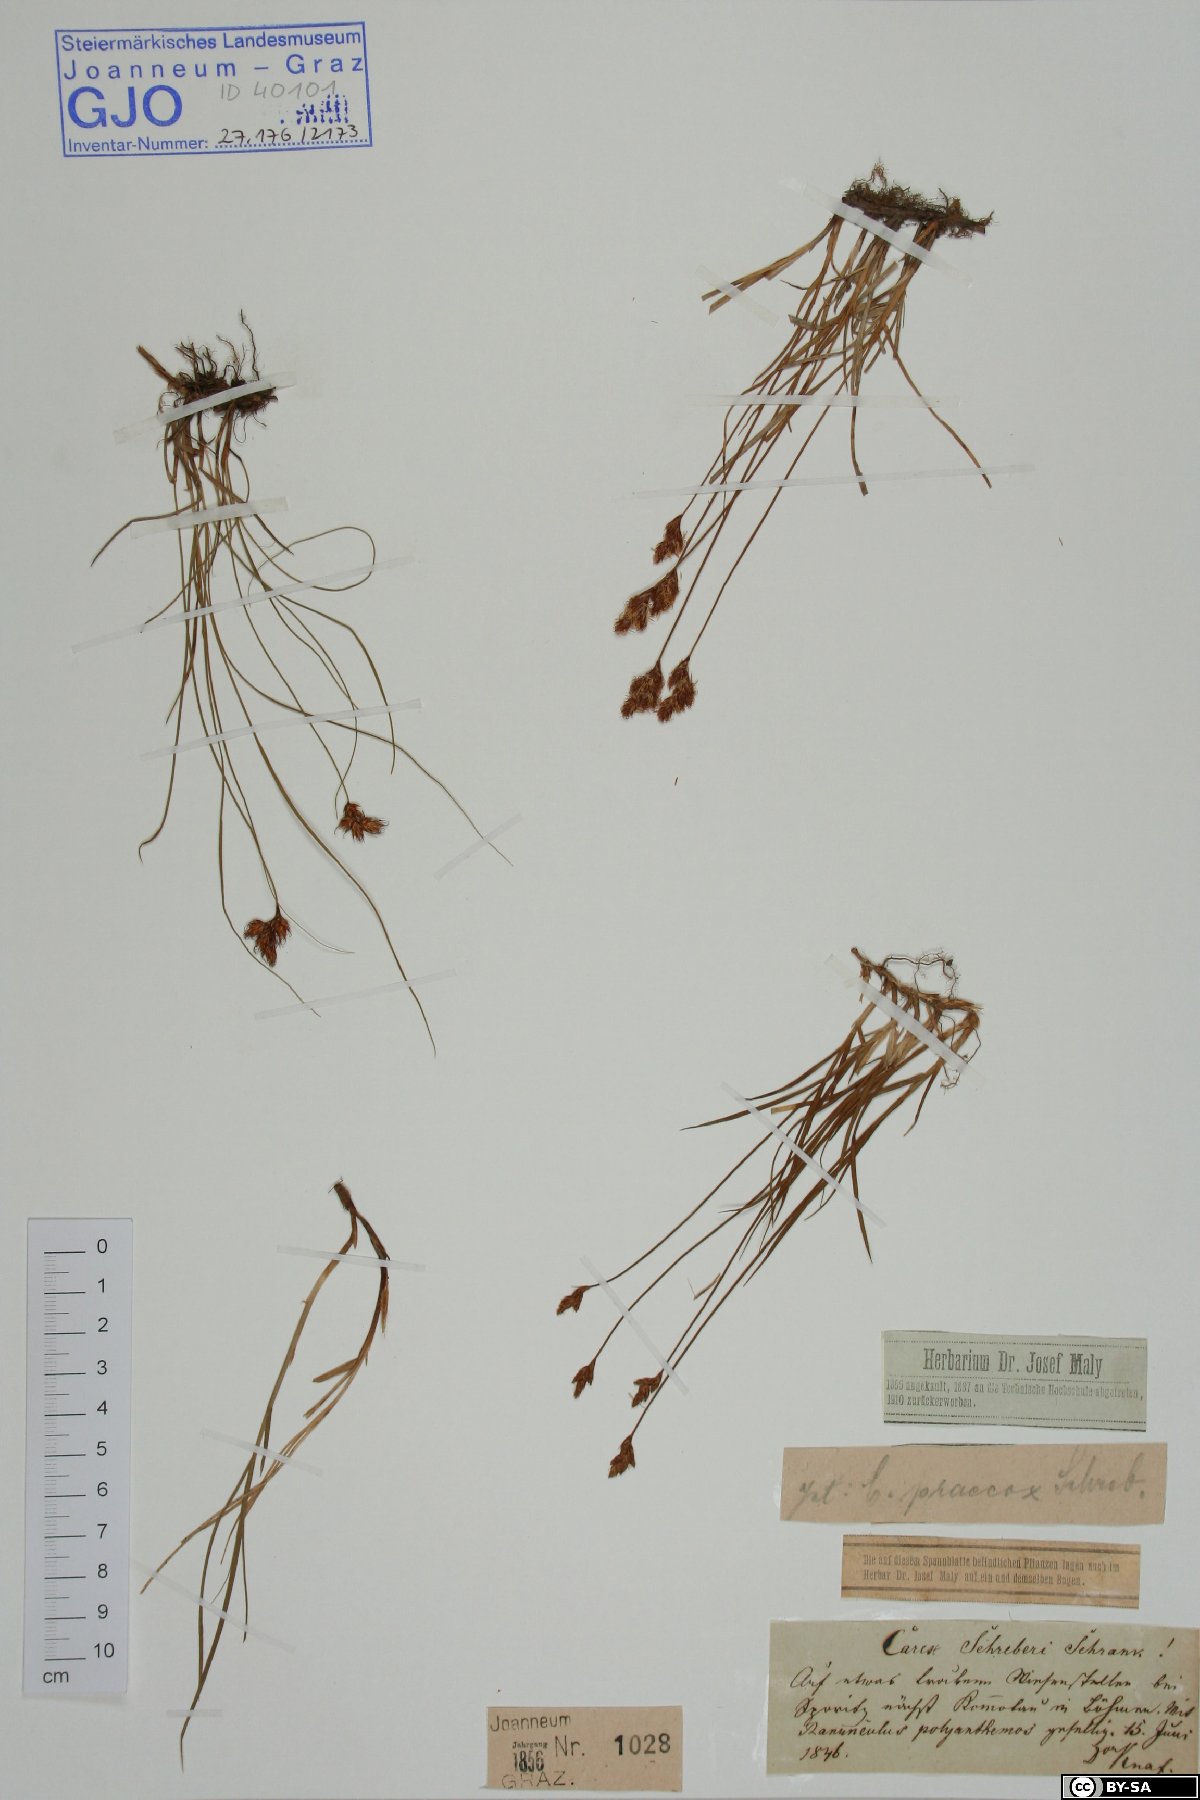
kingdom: Plantae
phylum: Tracheophyta
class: Liliopsida
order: Poales
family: Cyperaceae
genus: Carex
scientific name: Carex praecox
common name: Early sedge
